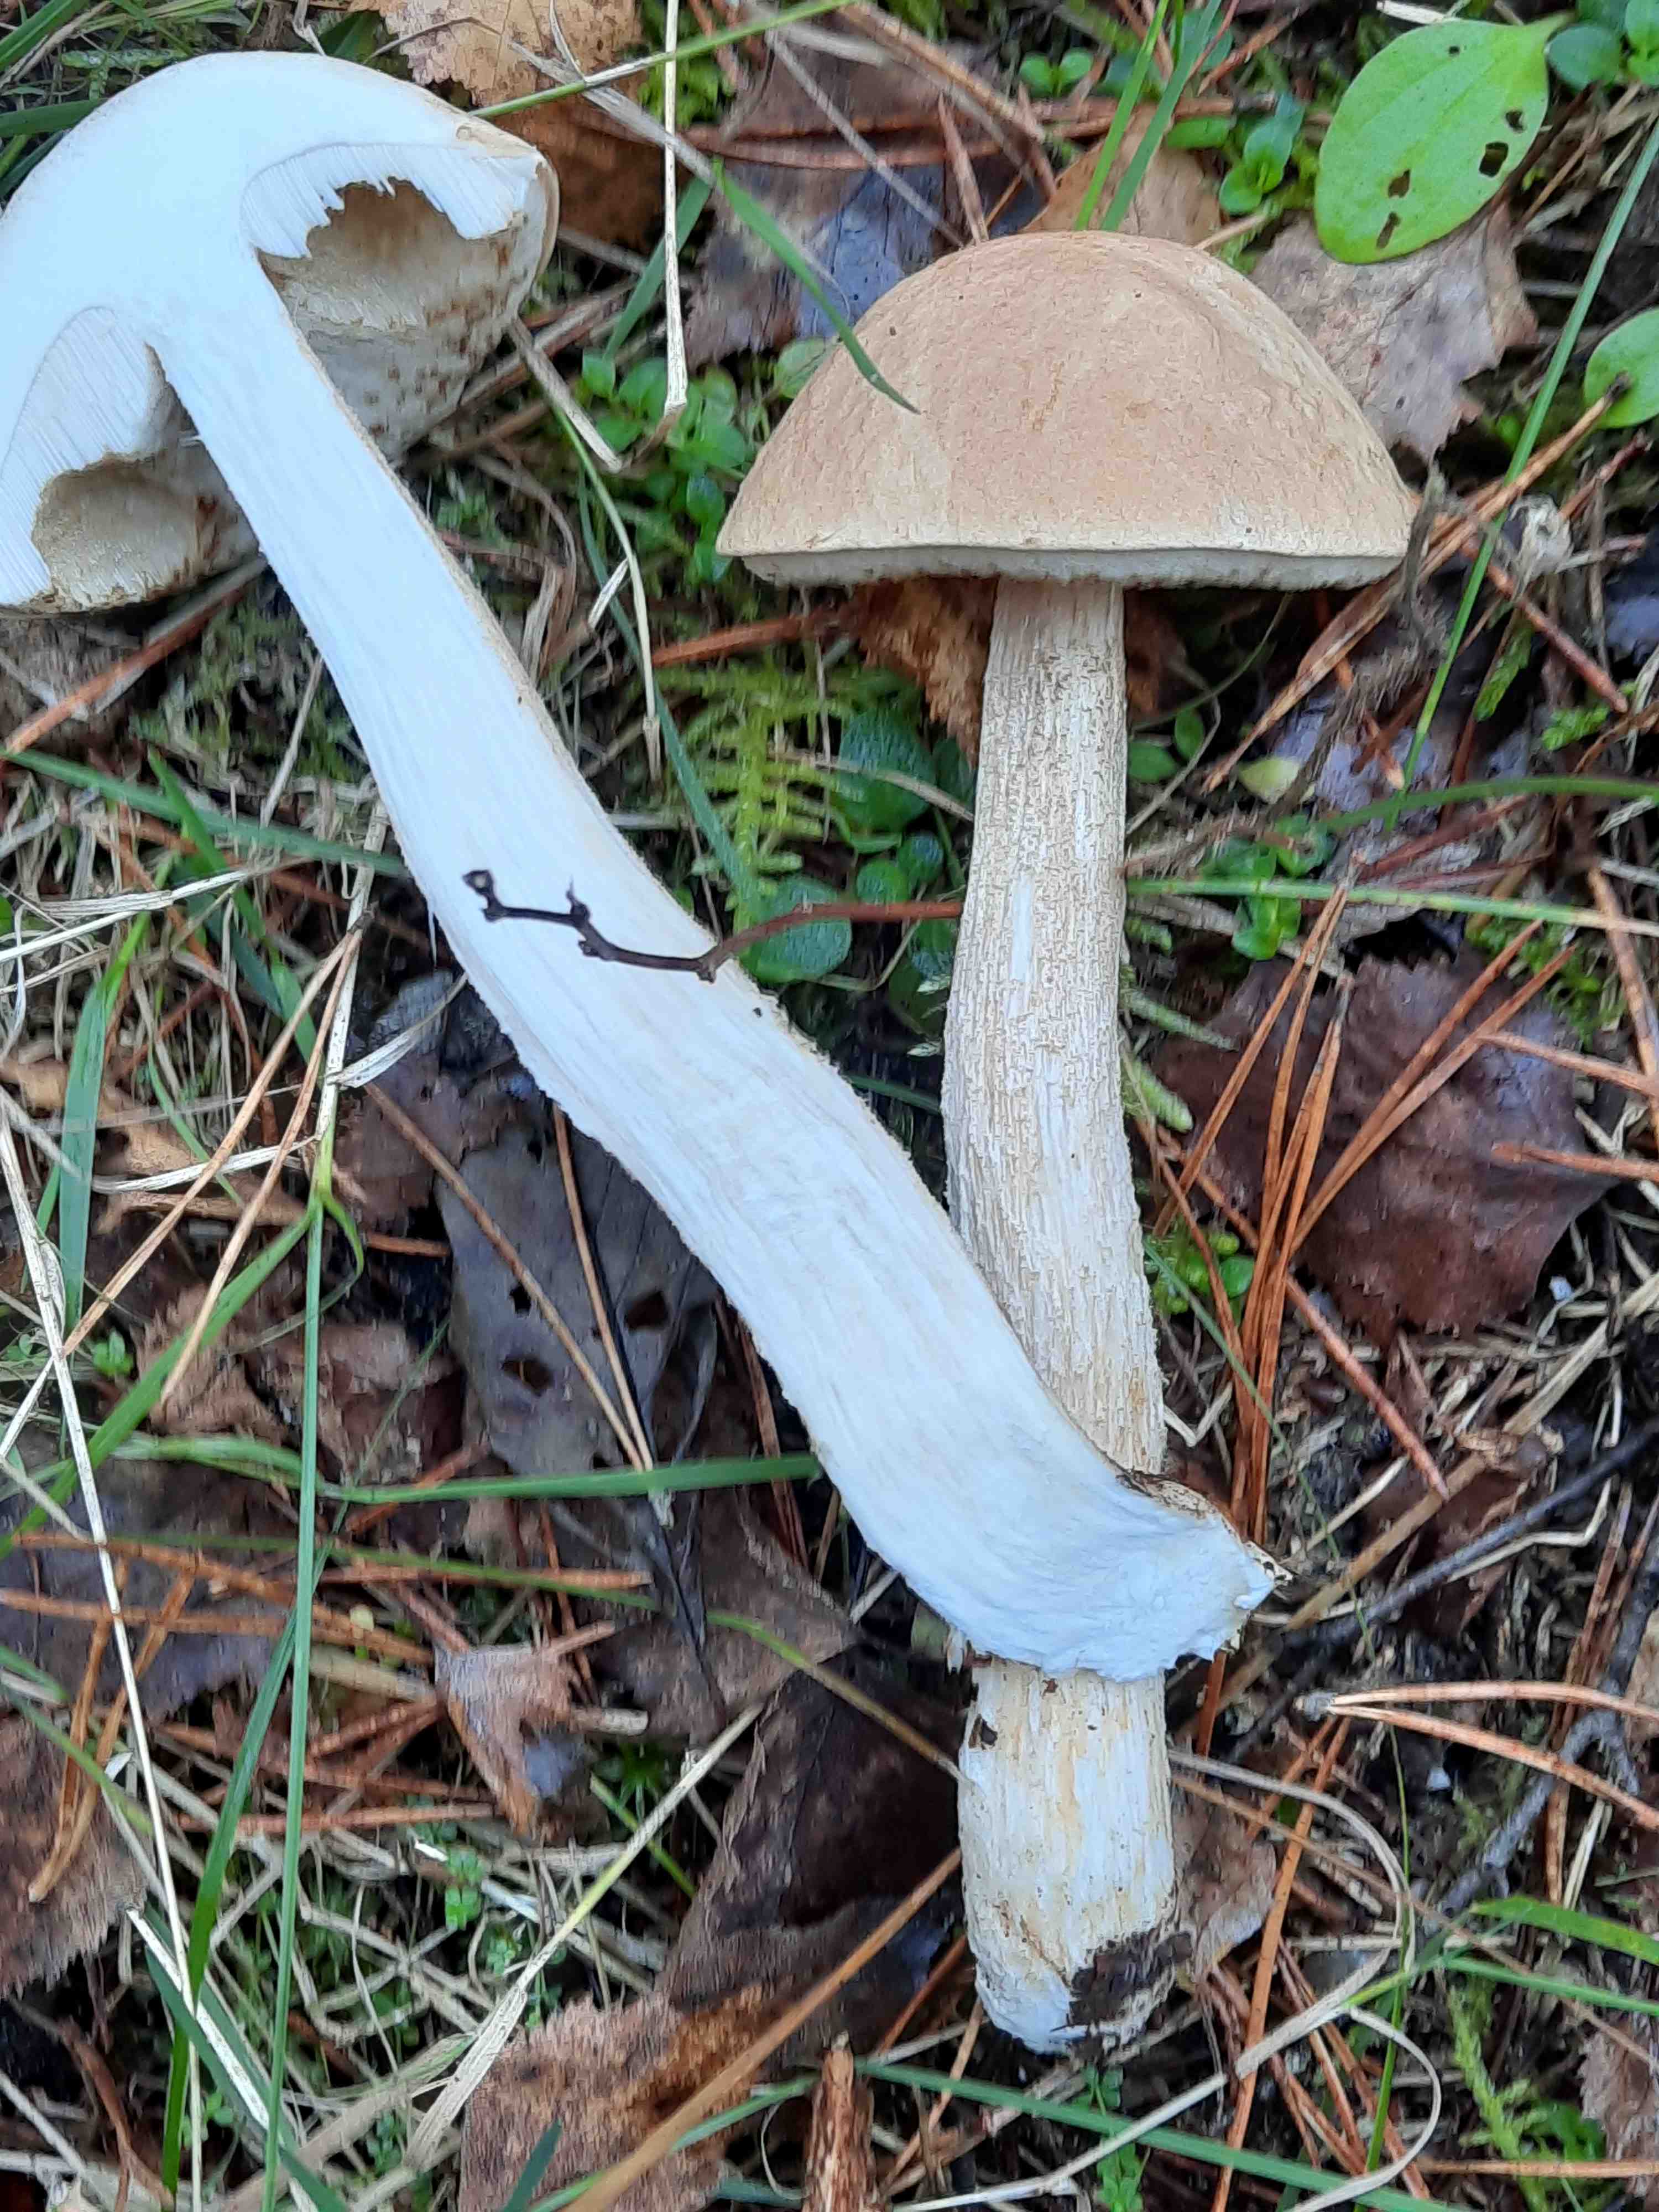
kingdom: Fungi
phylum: Basidiomycota
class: Agaricomycetes
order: Boletales
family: Boletaceae
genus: Leccinum
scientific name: Leccinum scabrum
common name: brun skælrørhat
